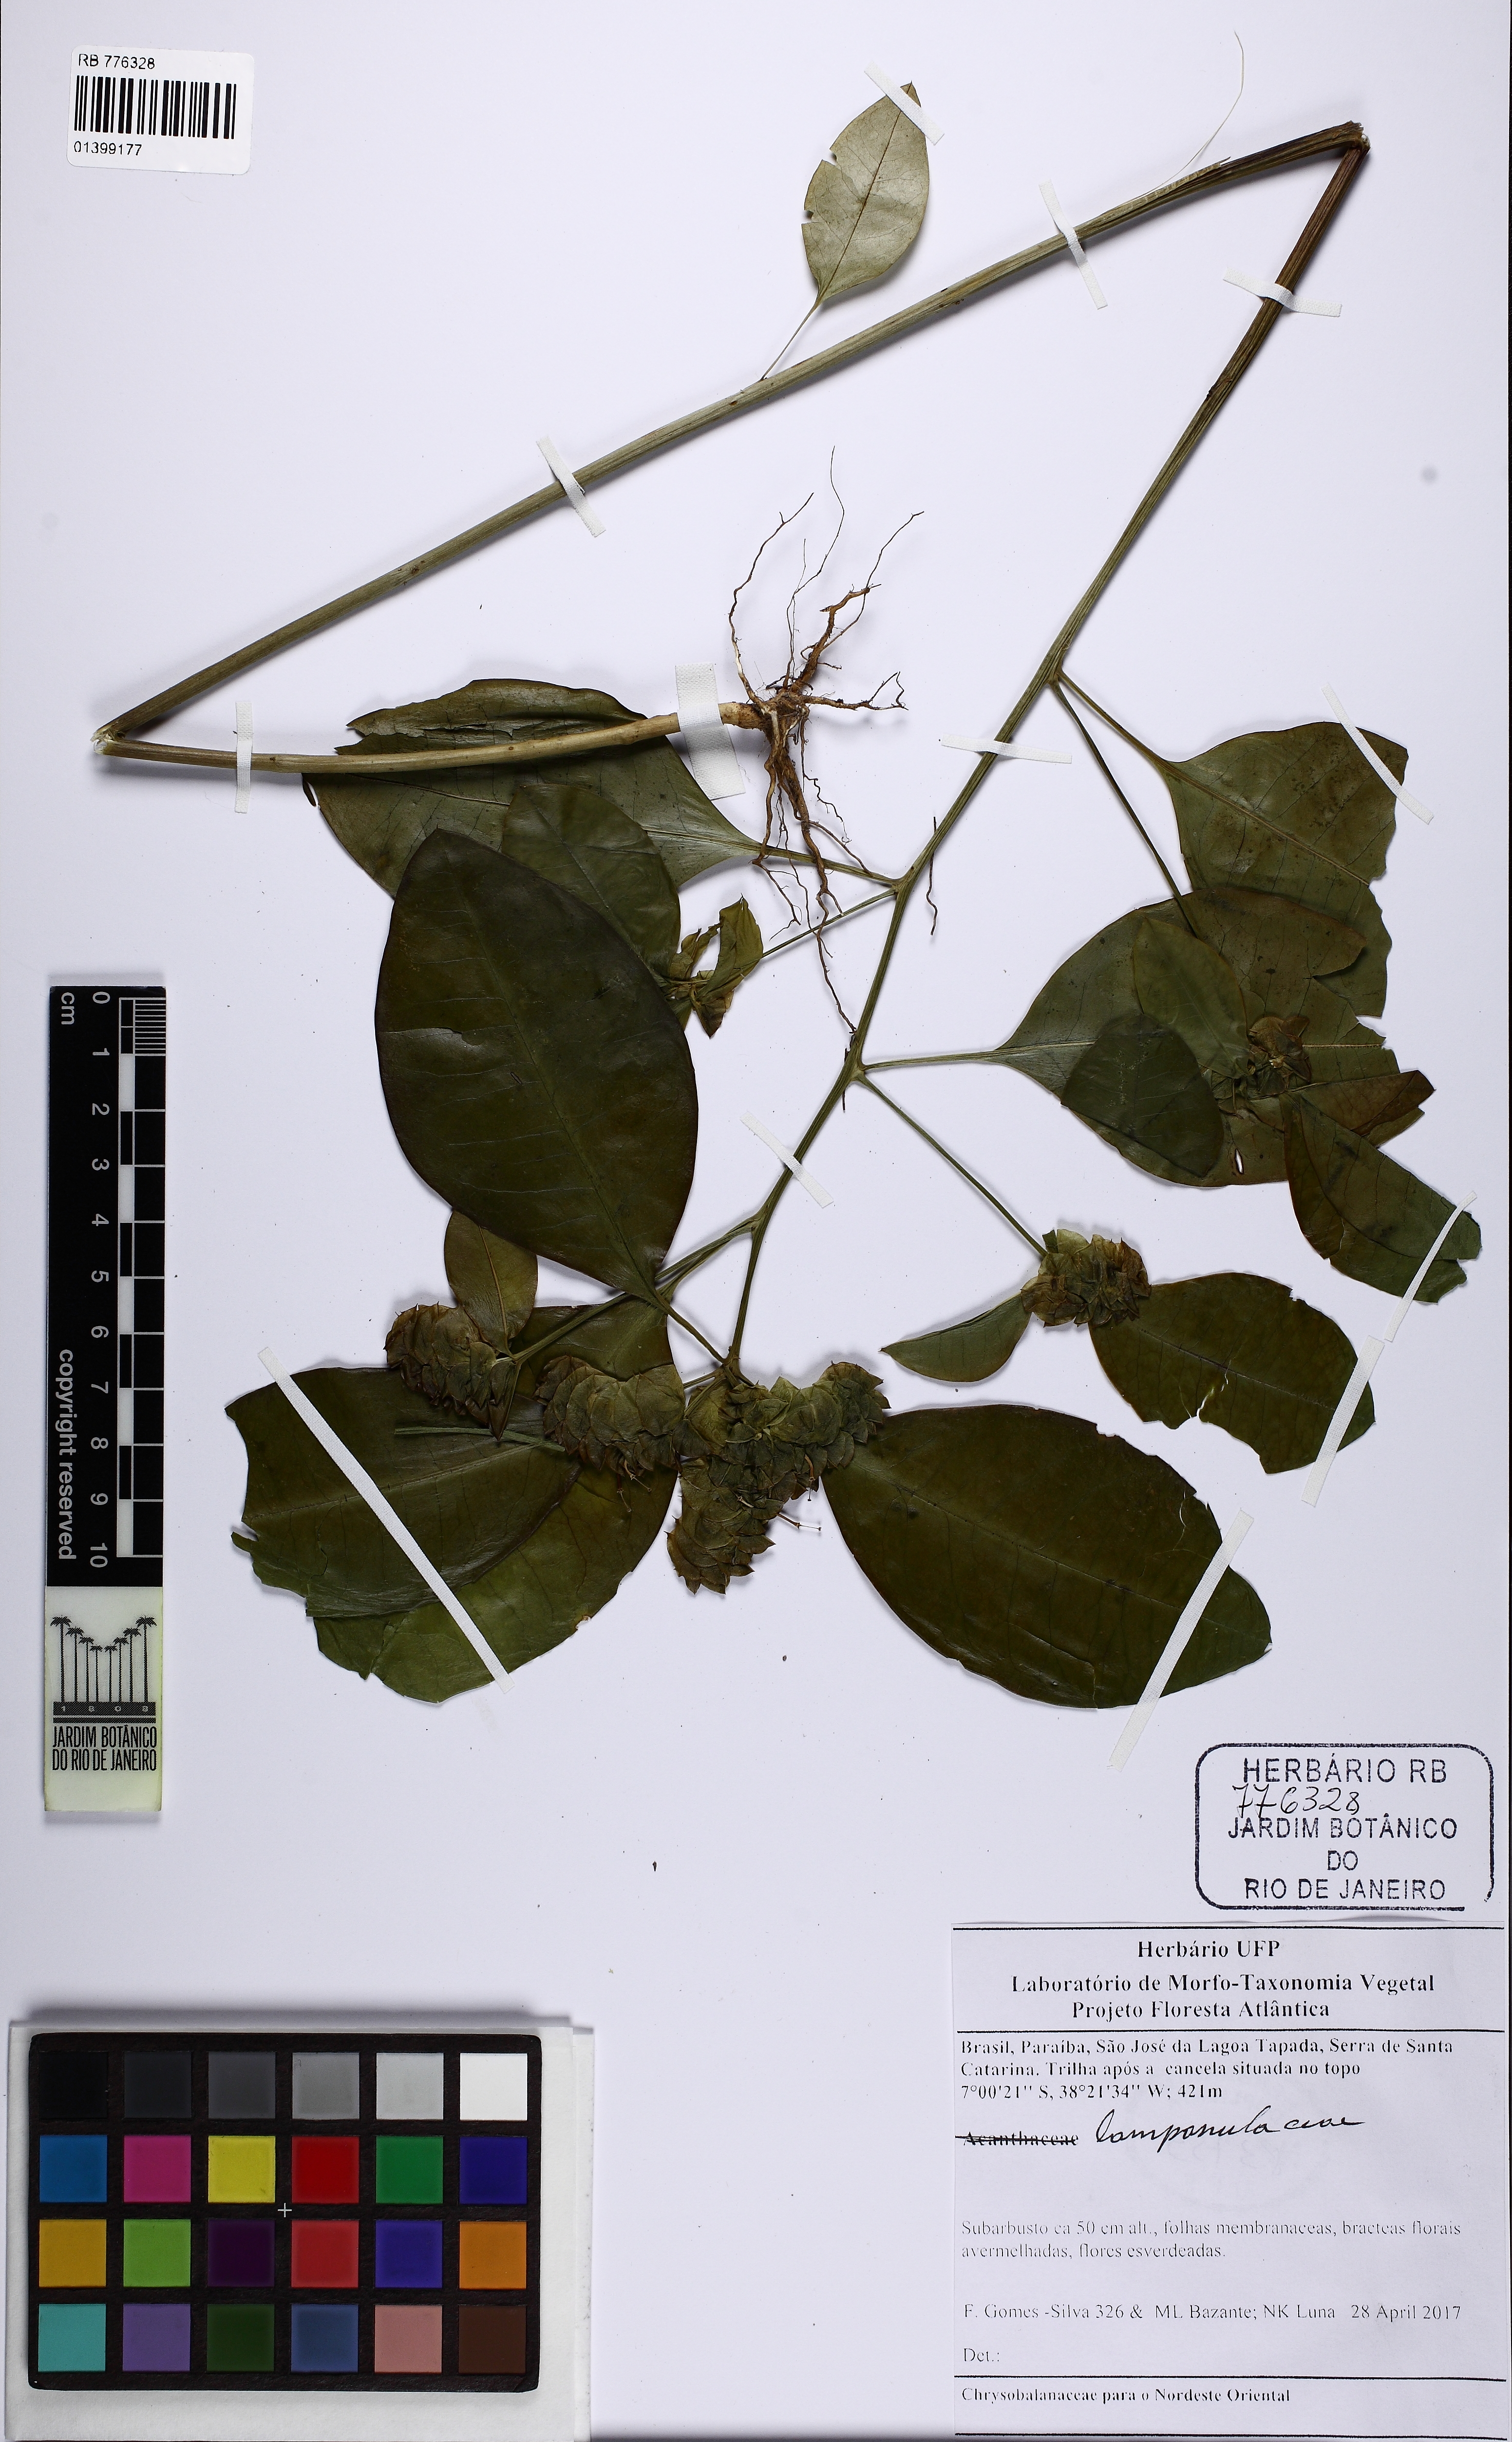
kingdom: Plantae
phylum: Tracheophyta
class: Magnoliopsida
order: Malpighiales
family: Euphorbiaceae
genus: Euphorbia
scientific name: Euphorbia comosa
